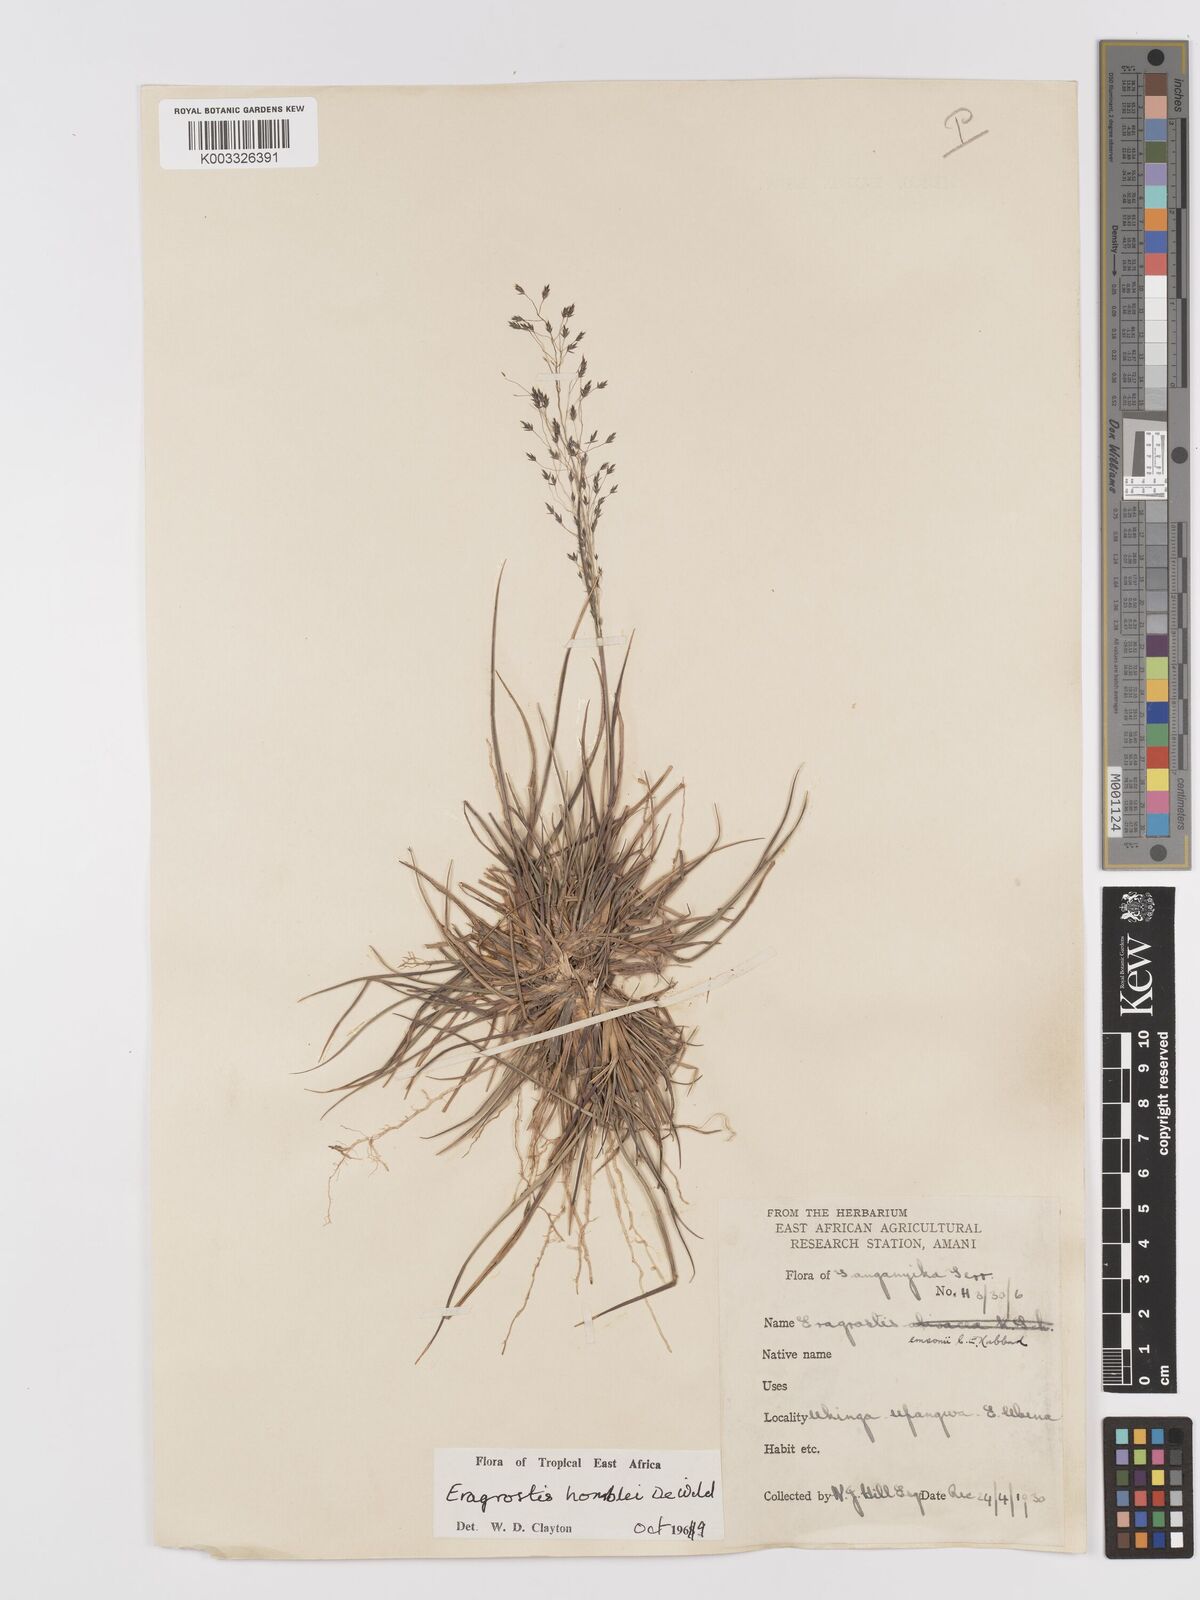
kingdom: Plantae
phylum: Tracheophyta
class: Liliopsida
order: Poales
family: Poaceae
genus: Eragrostis
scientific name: Eragrostis homblei
